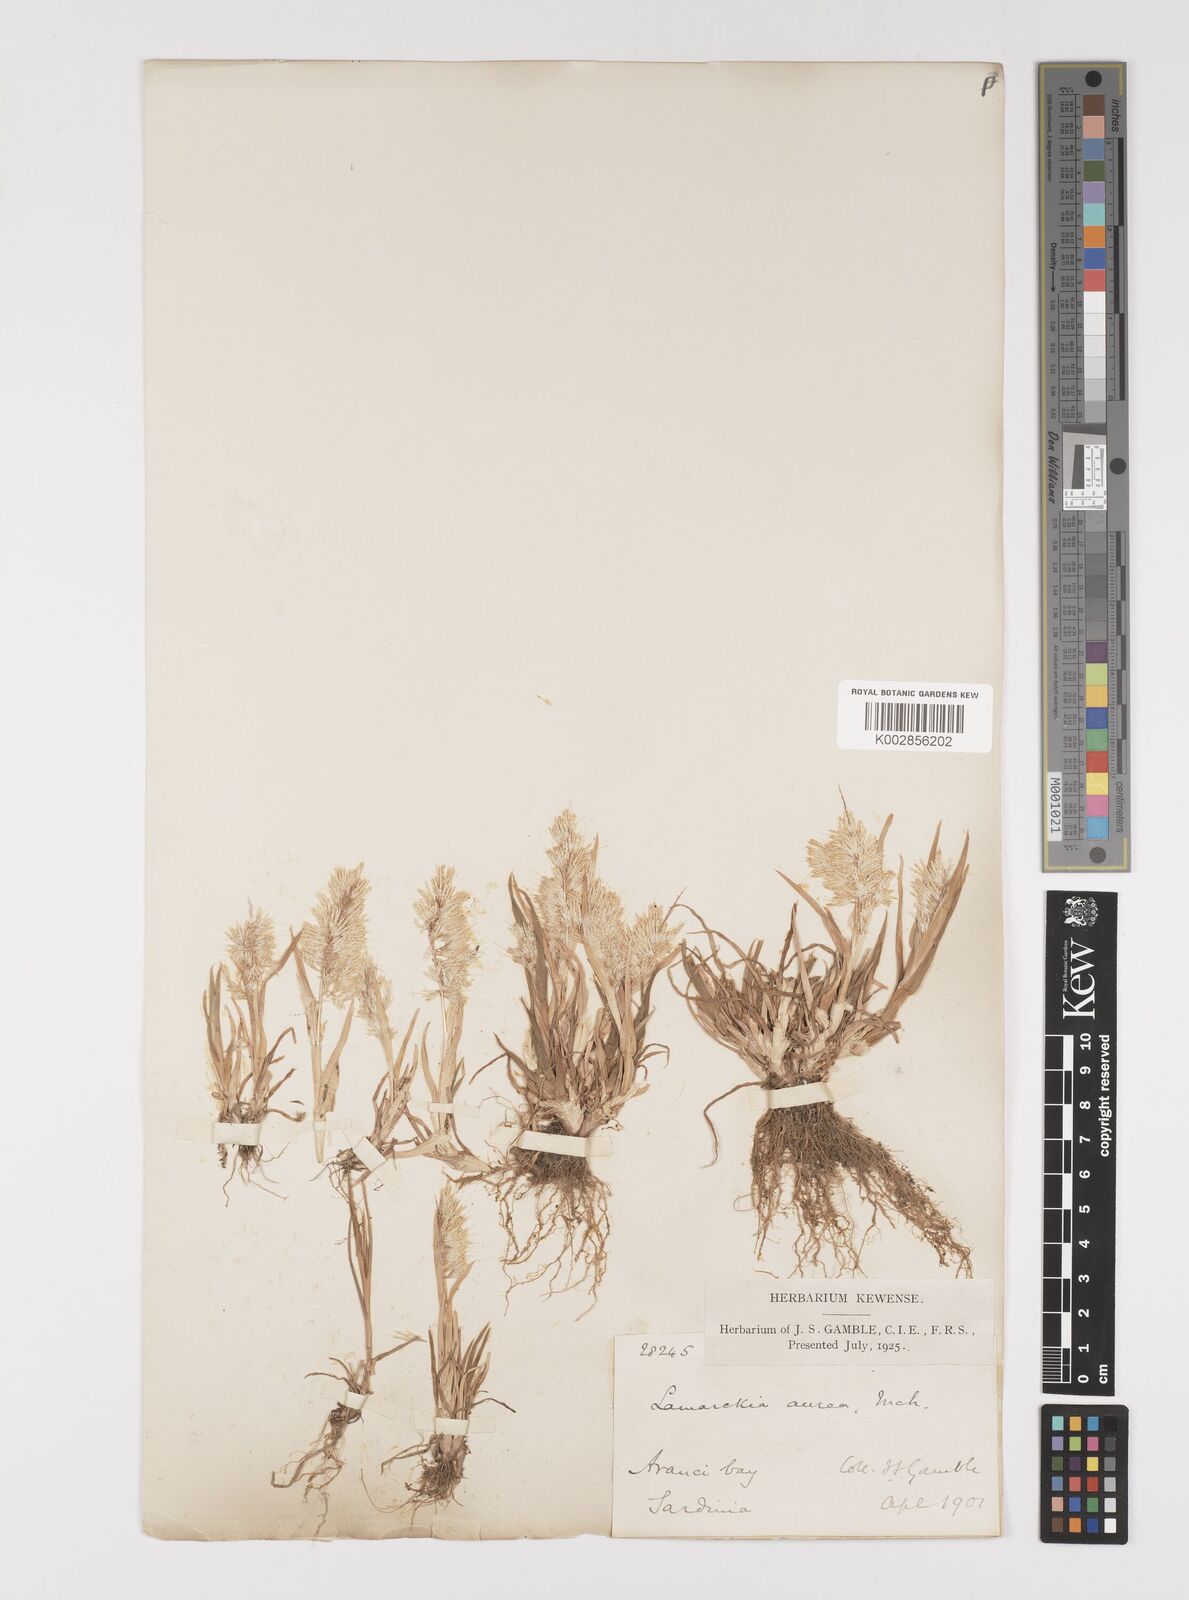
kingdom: Plantae
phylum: Tracheophyta
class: Liliopsida
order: Poales
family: Poaceae
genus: Lamarckia
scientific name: Lamarckia aurea
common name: Golden dog's-tail
